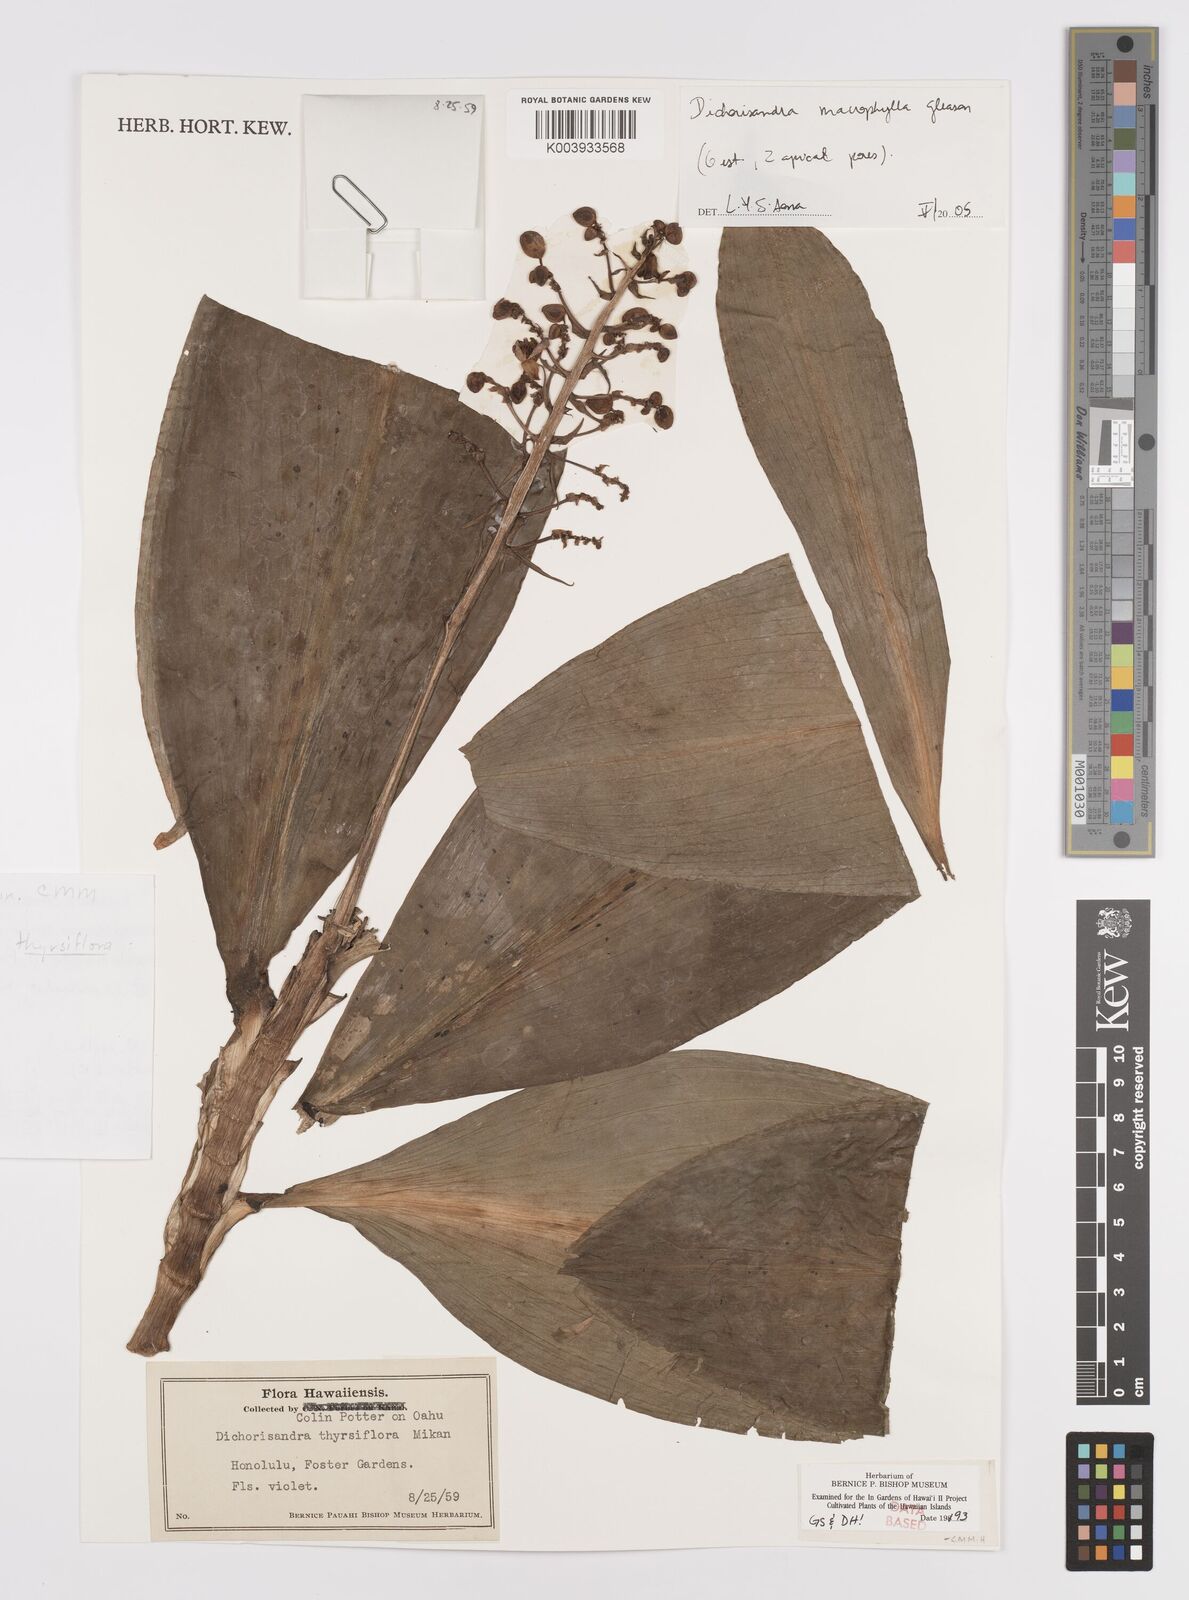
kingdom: Plantae
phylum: Tracheophyta
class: Liliopsida
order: Commelinales
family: Commelinaceae
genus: Dichorisandra
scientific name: Dichorisandra albomarginata
